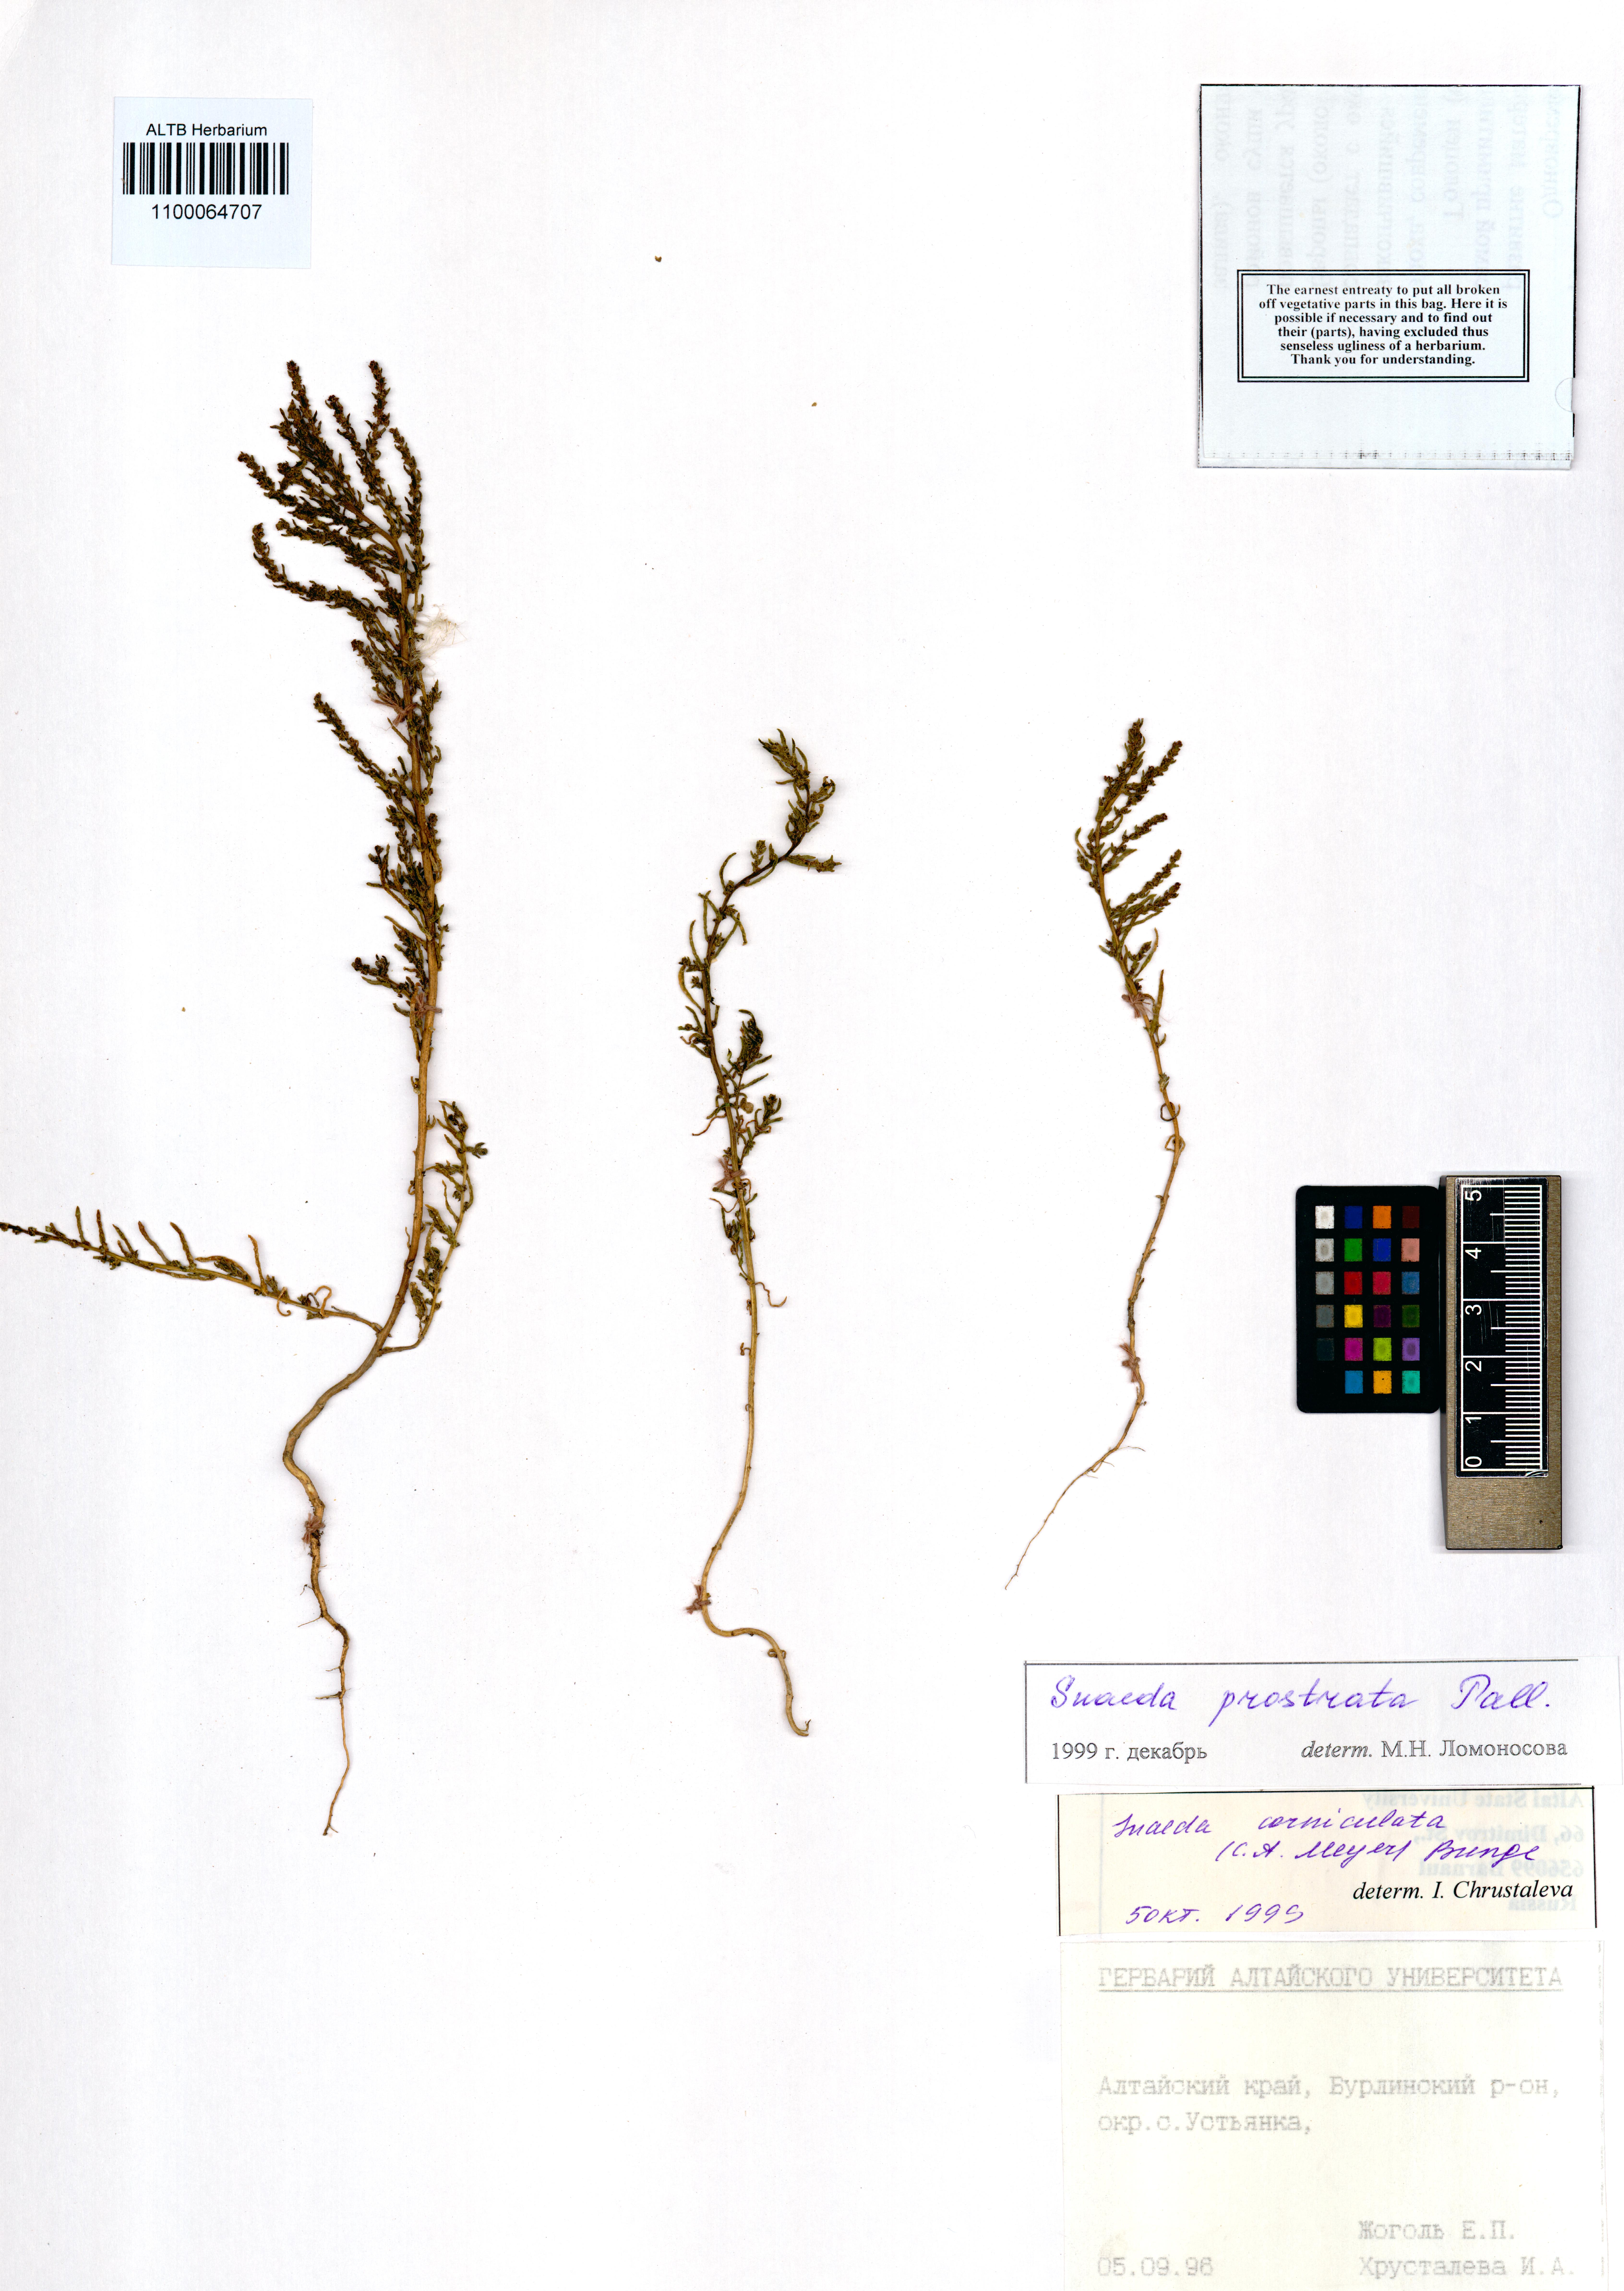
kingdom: Plantae
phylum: Tracheophyta
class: Magnoliopsida
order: Caryophyllales
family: Amaranthaceae
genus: Suaeda
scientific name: Suaeda prostrata
